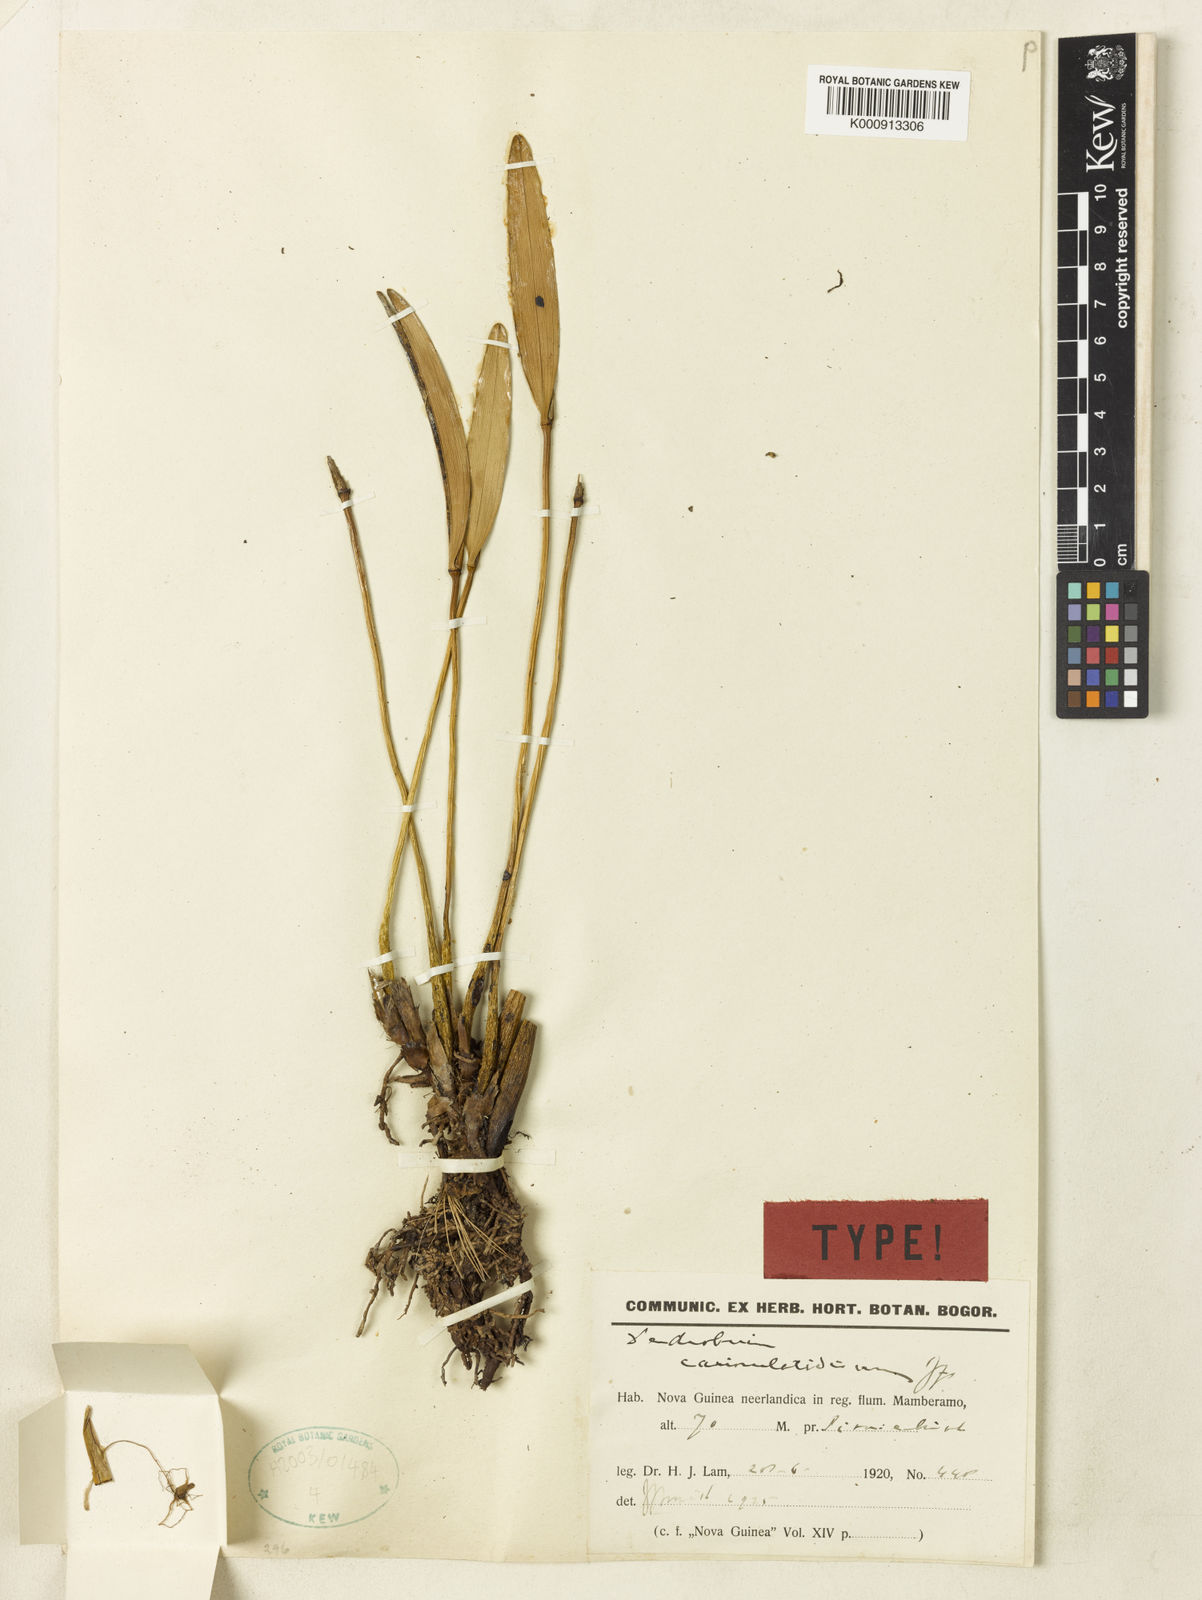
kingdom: Plantae
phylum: Tracheophyta
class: Liliopsida
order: Asparagales
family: Orchidaceae
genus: Dendrobium
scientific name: Dendrobium carinulatidiscum
